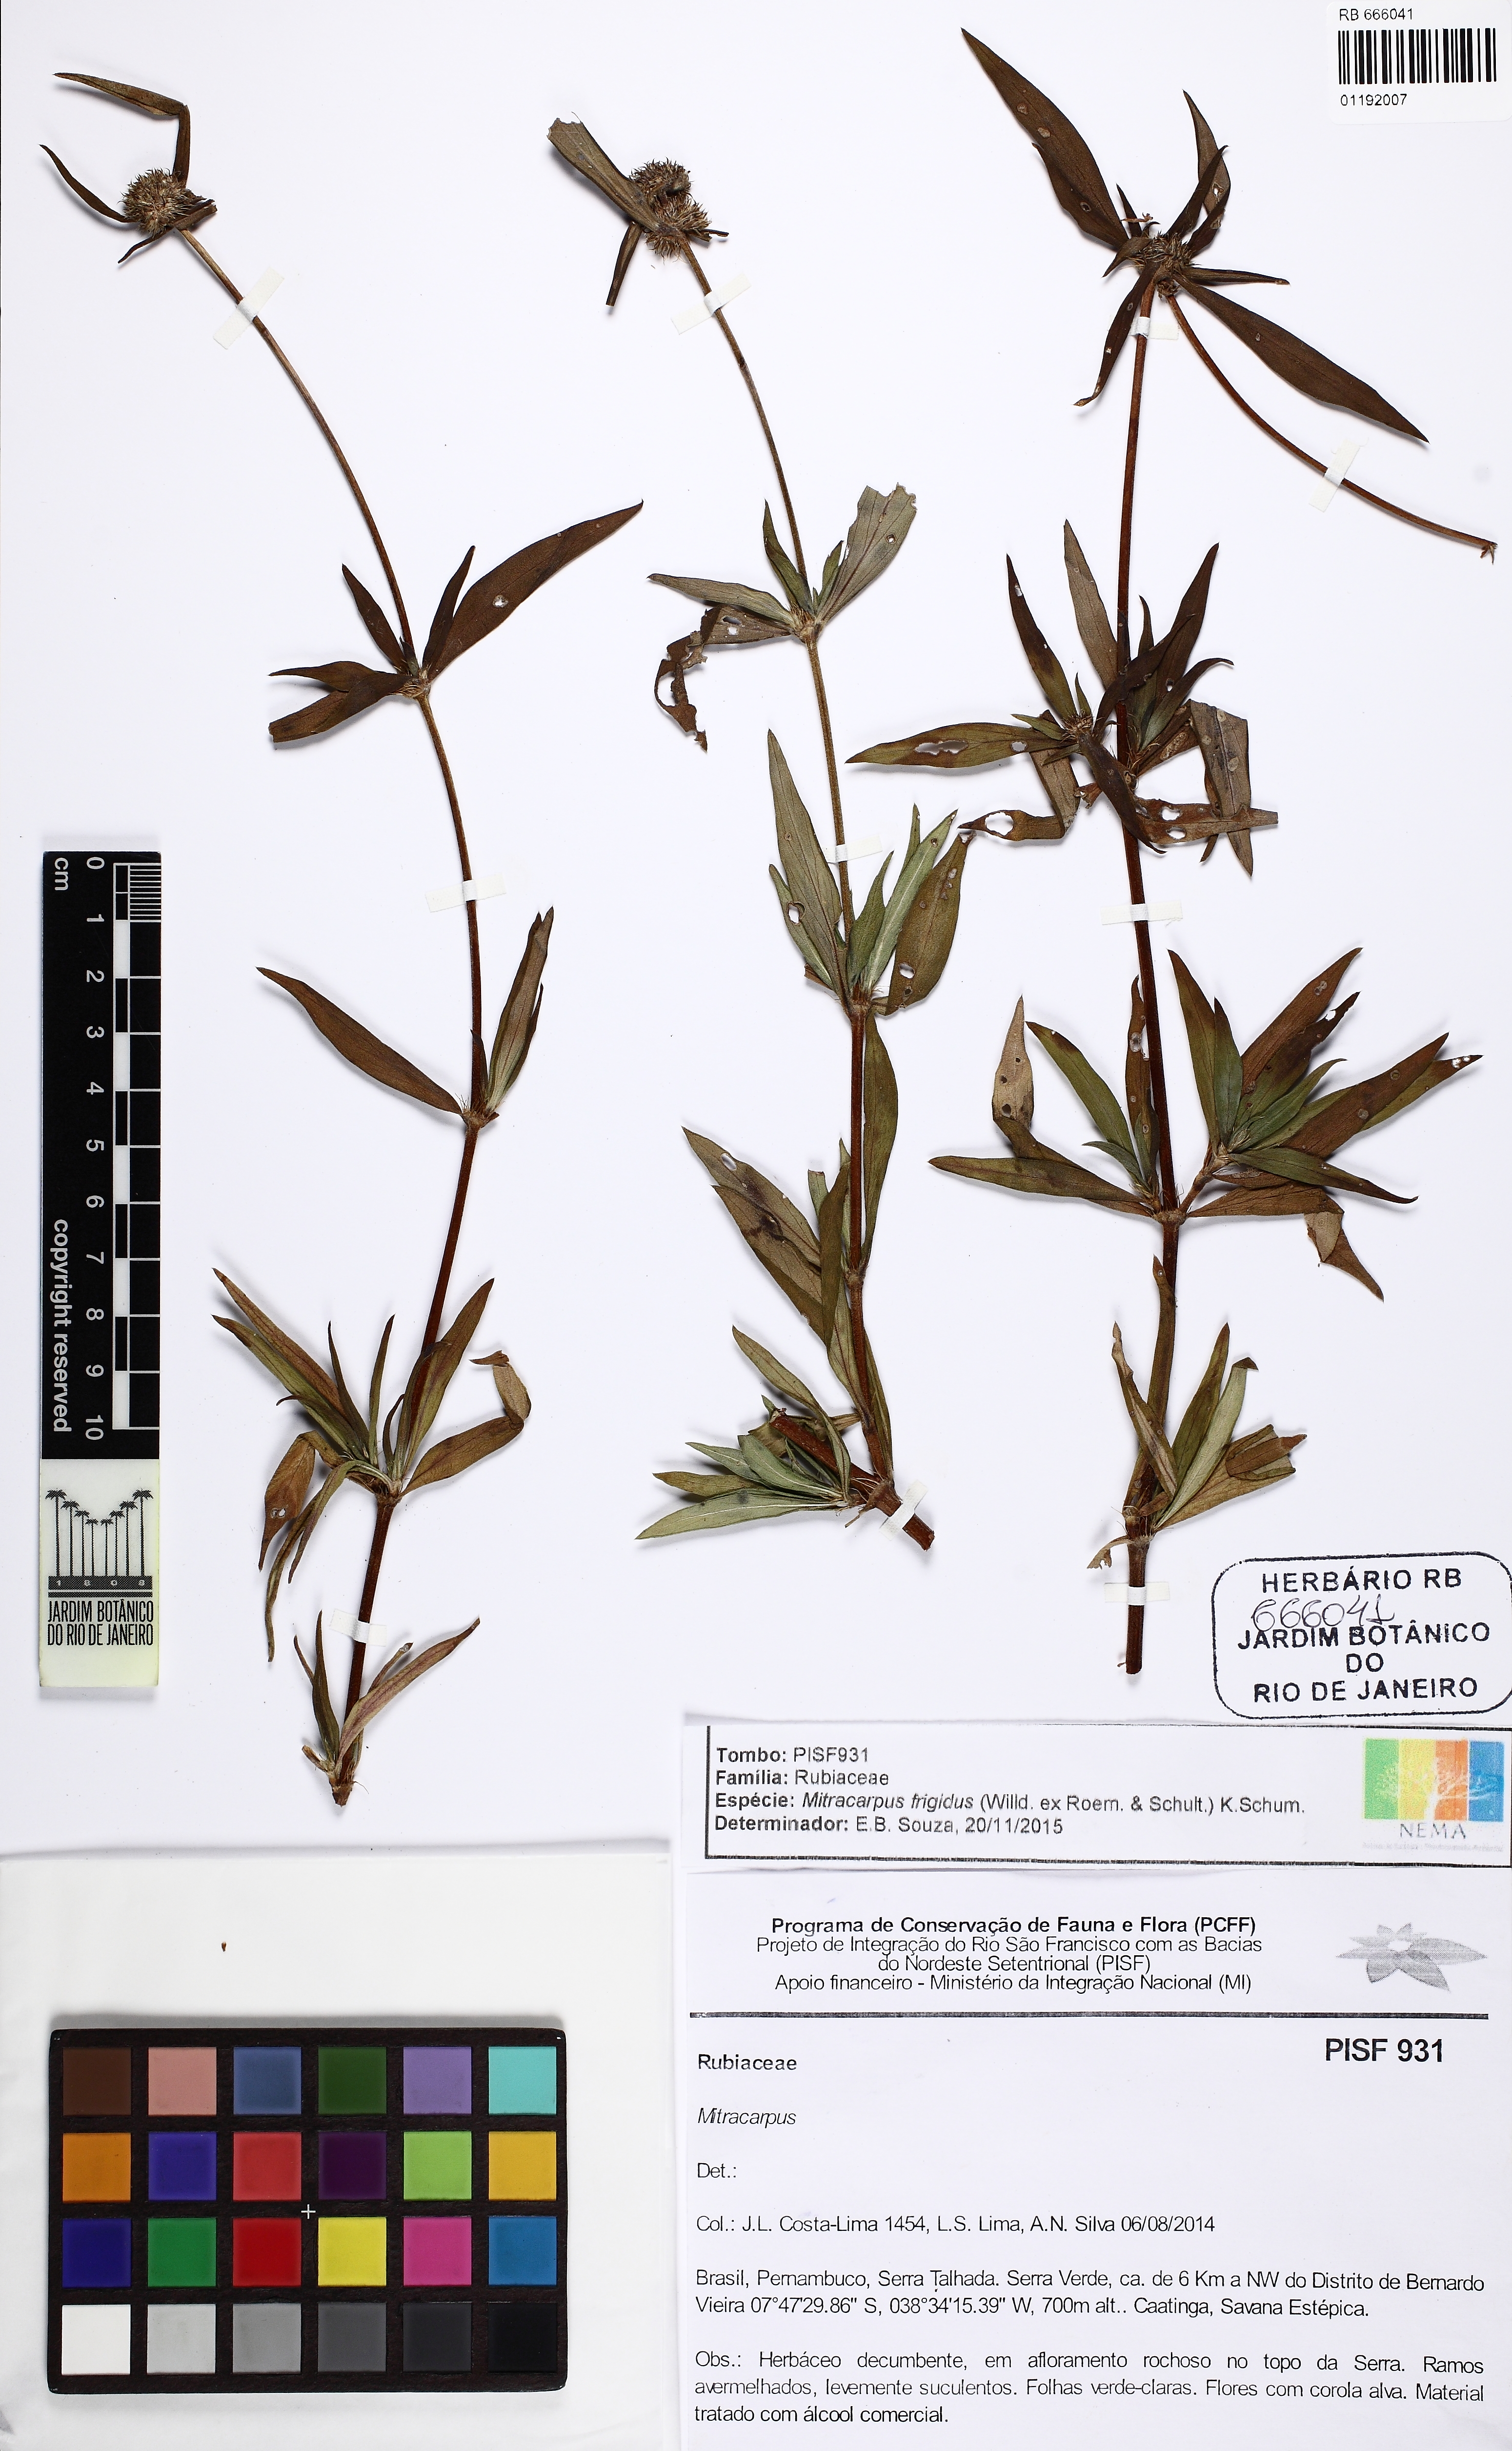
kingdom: Plantae
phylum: Tracheophyta
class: Magnoliopsida
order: Gentianales
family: Rubiaceae
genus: Mitracarpus
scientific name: Mitracarpus frigidus
